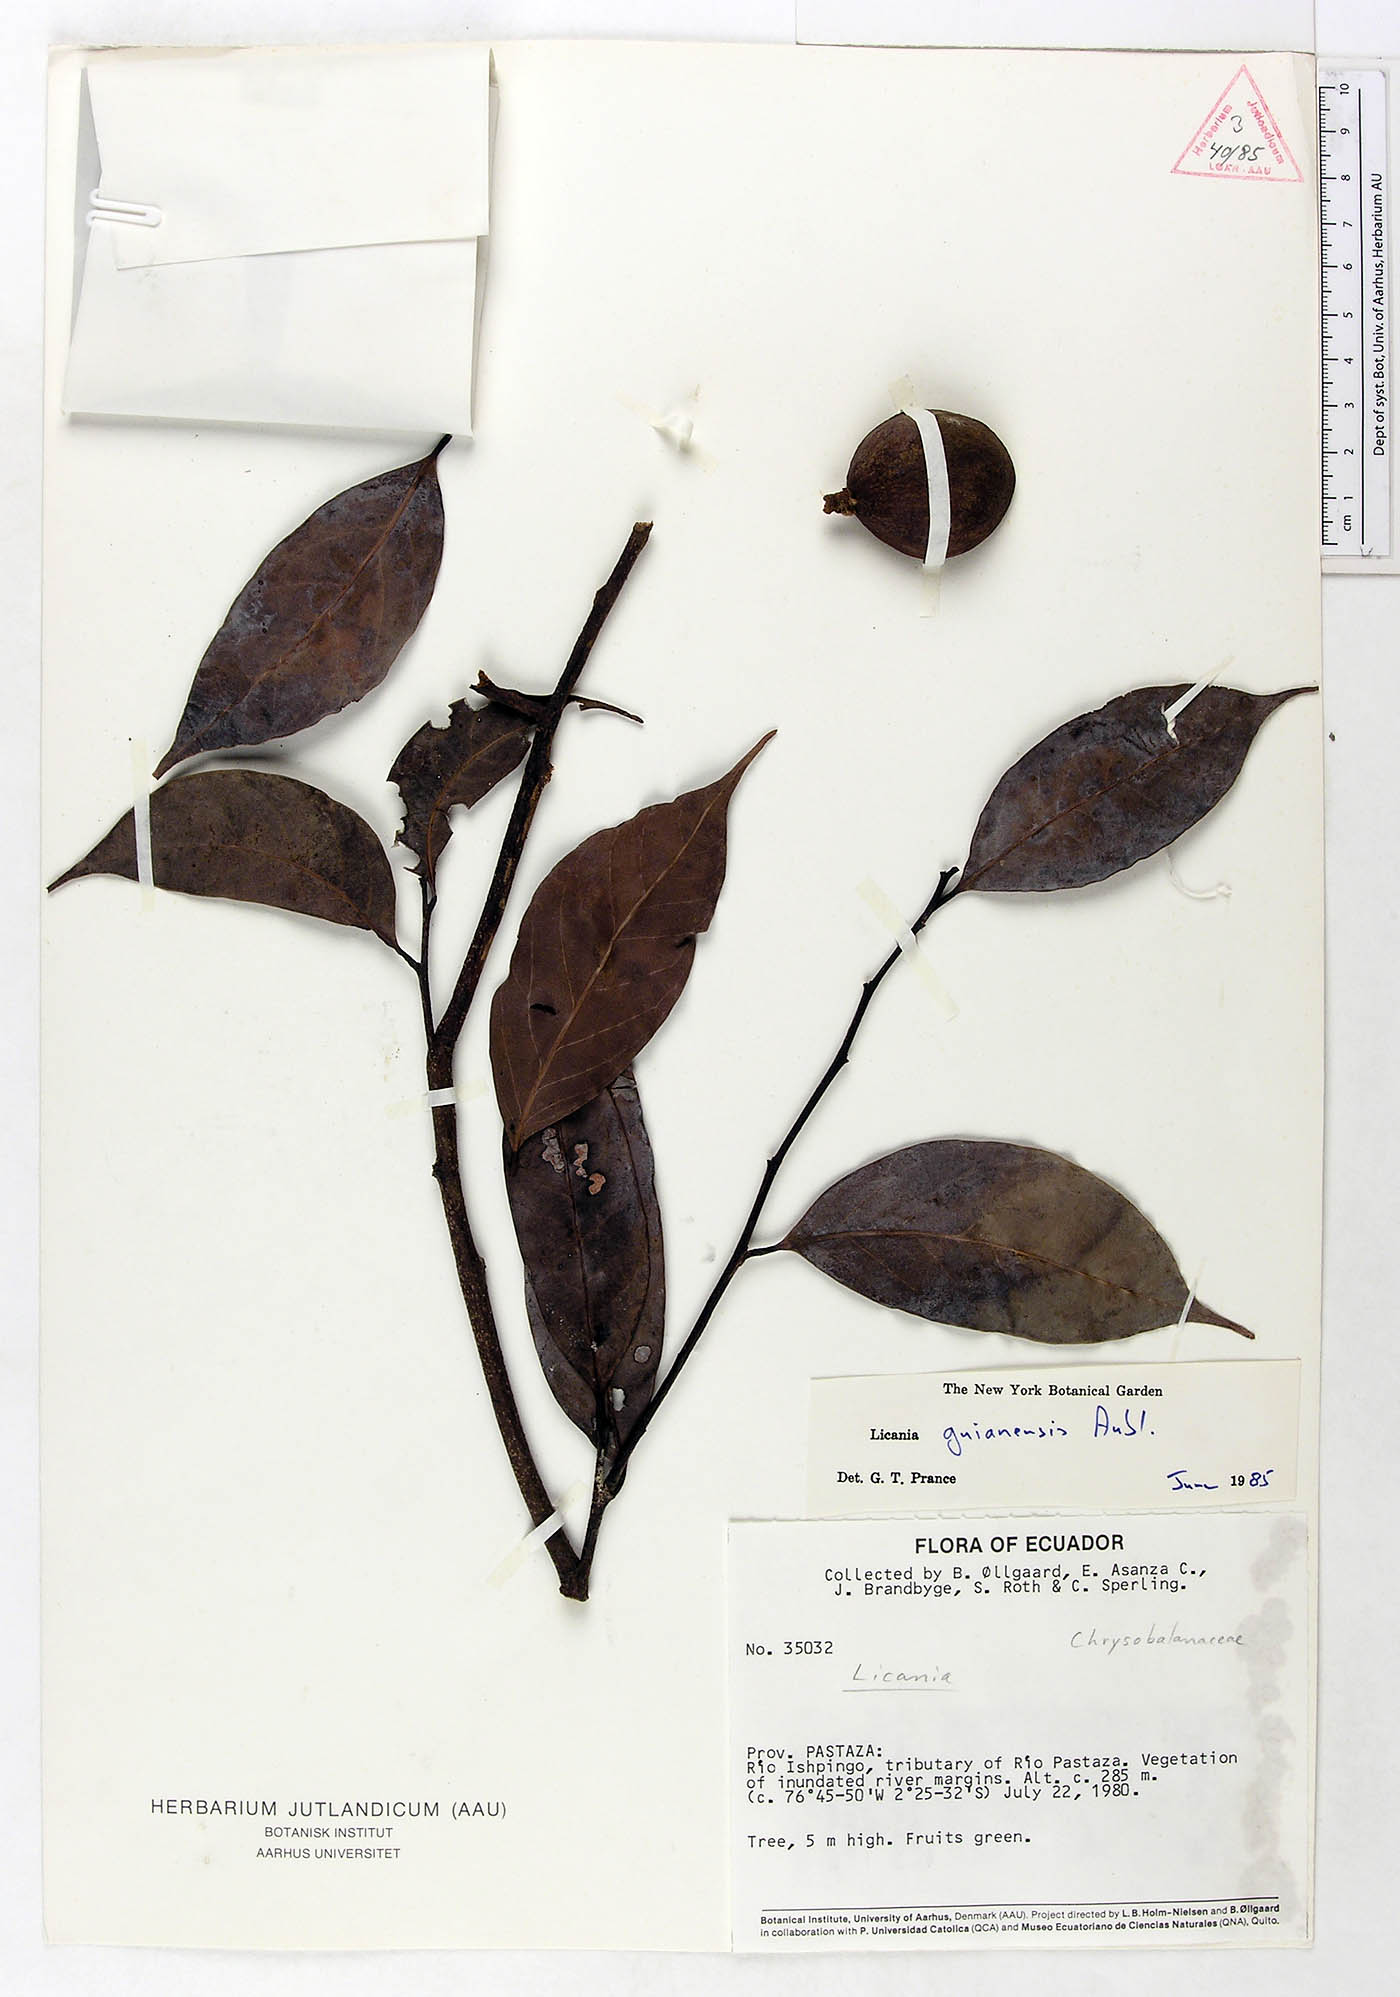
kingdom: Plantae
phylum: Tracheophyta
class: Magnoliopsida
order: Malpighiales
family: Chrysobalanaceae
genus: Moquilea
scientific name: Moquilea guianensis
